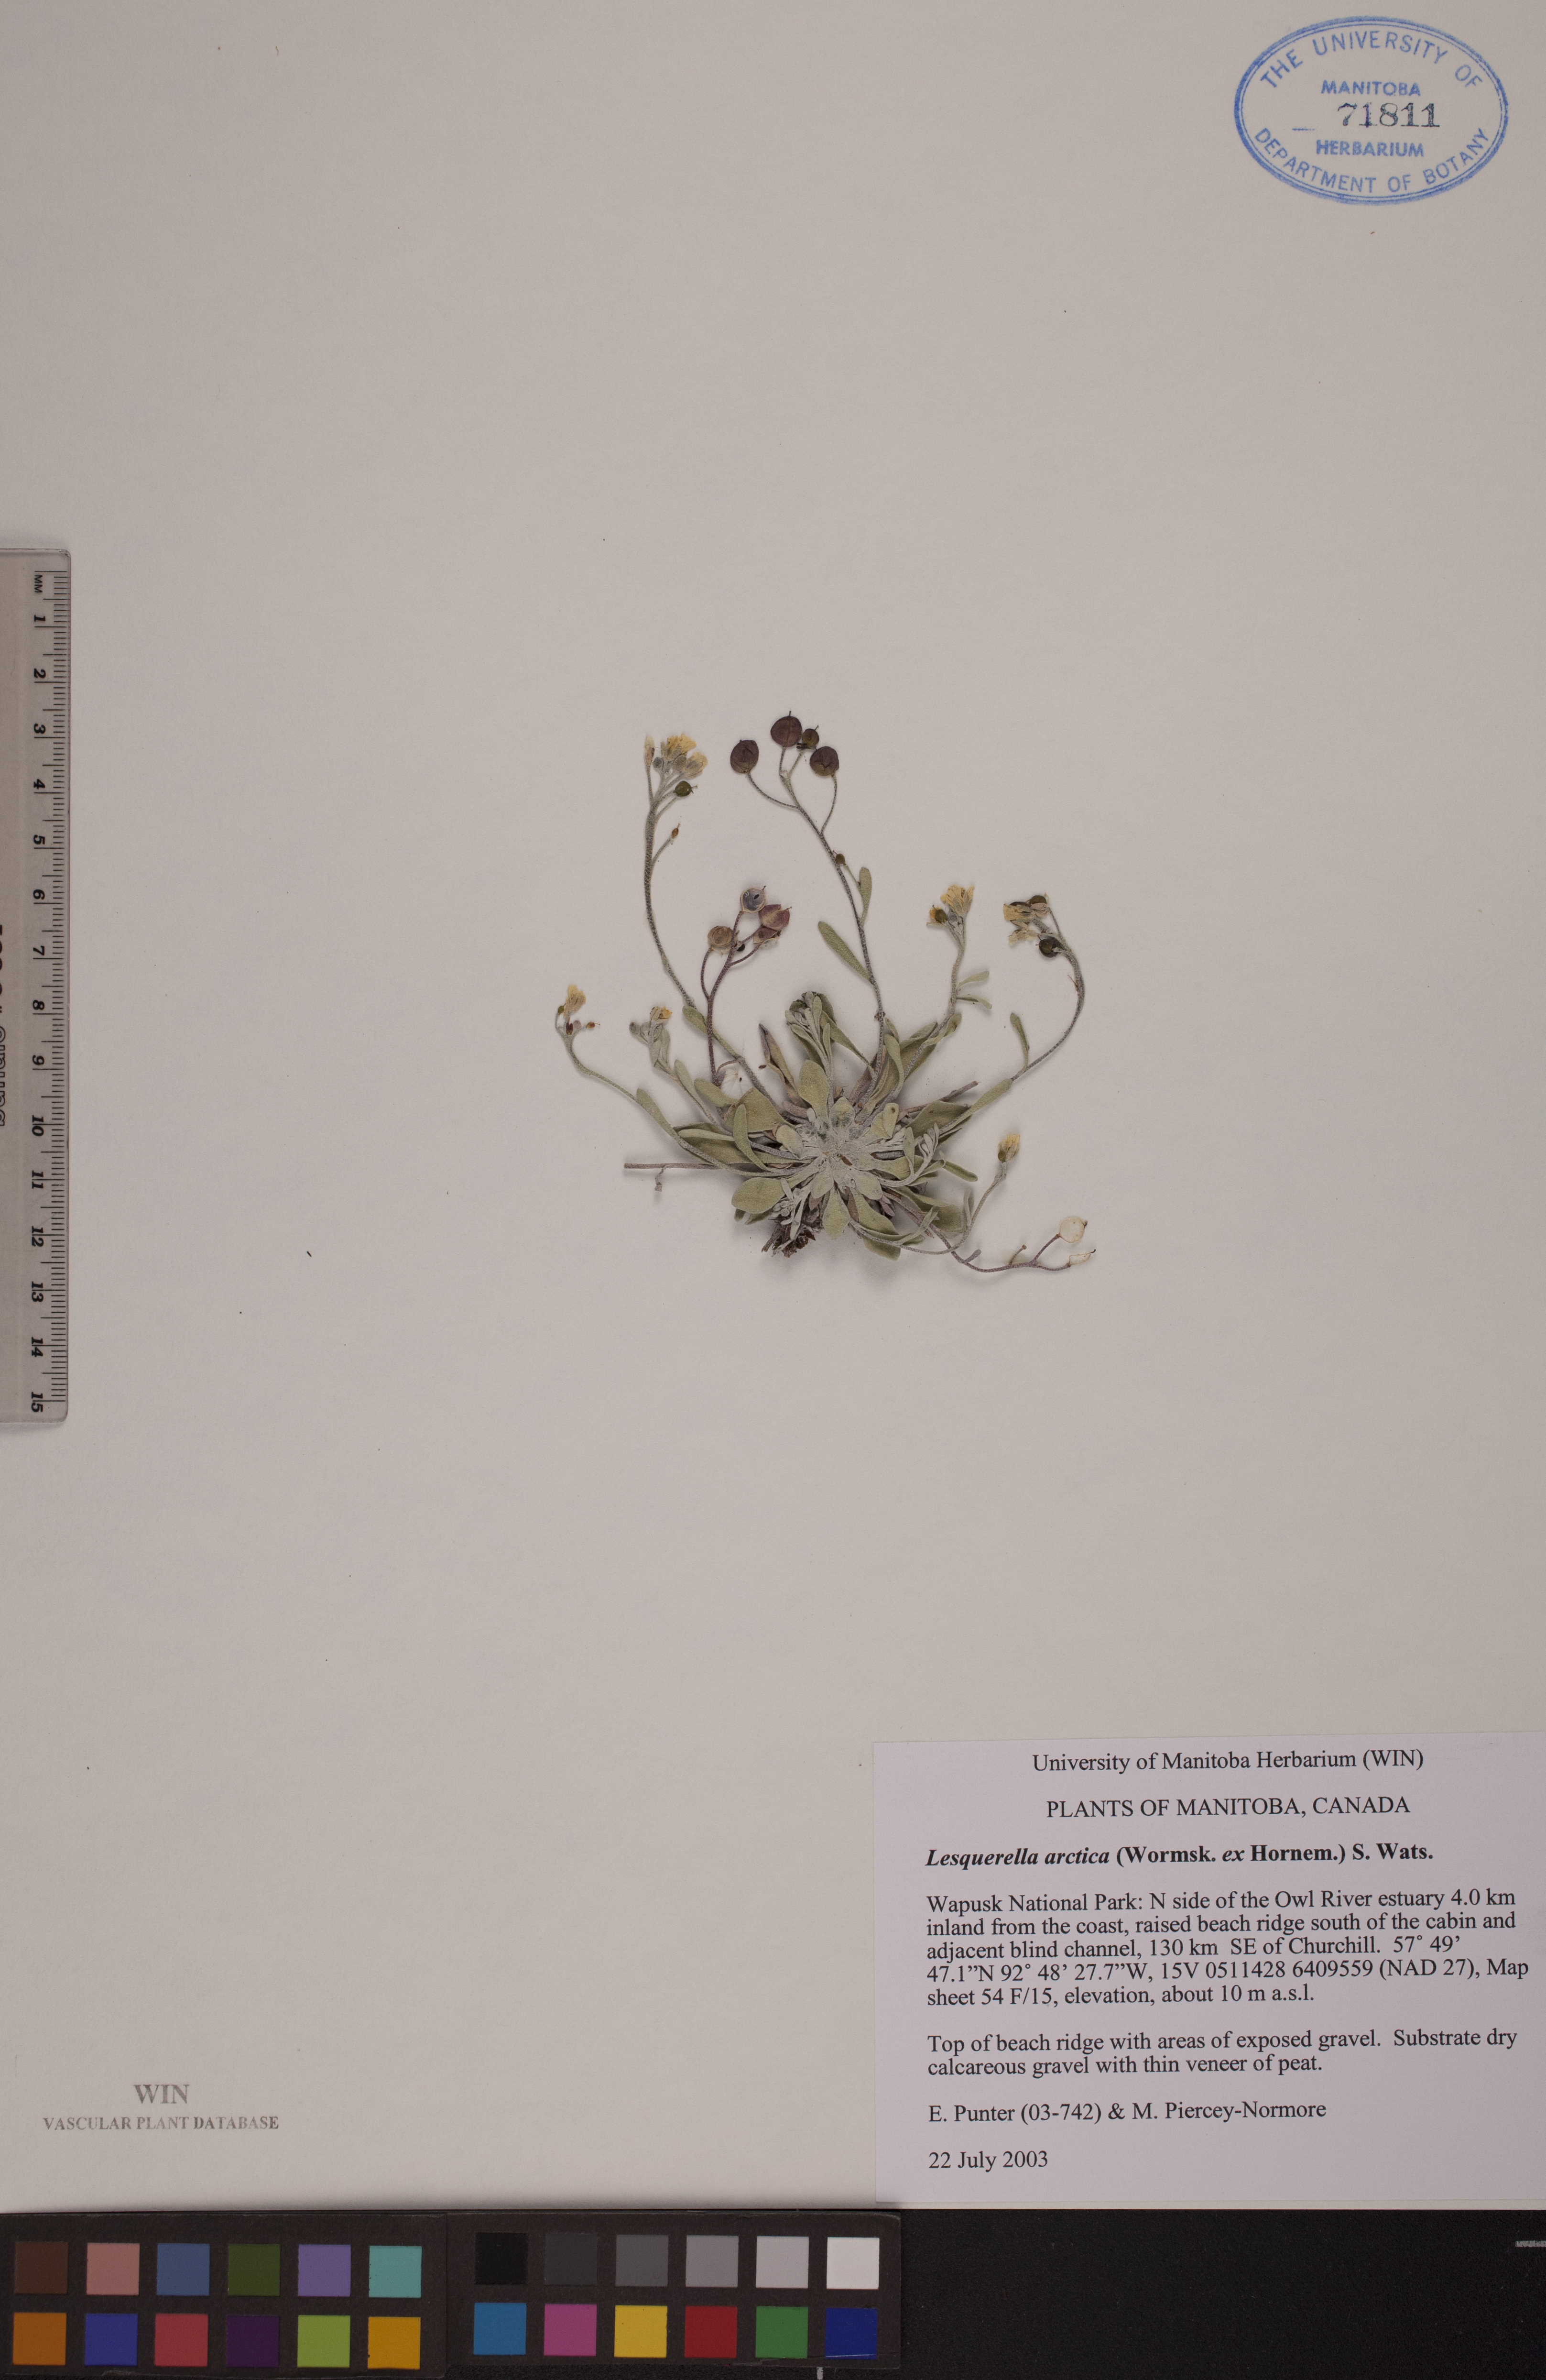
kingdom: Plantae
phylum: Tracheophyta
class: Magnoliopsida
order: Brassicales
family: Brassicaceae
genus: Physaria
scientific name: Physaria arctica
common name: Arctic bladderpod
